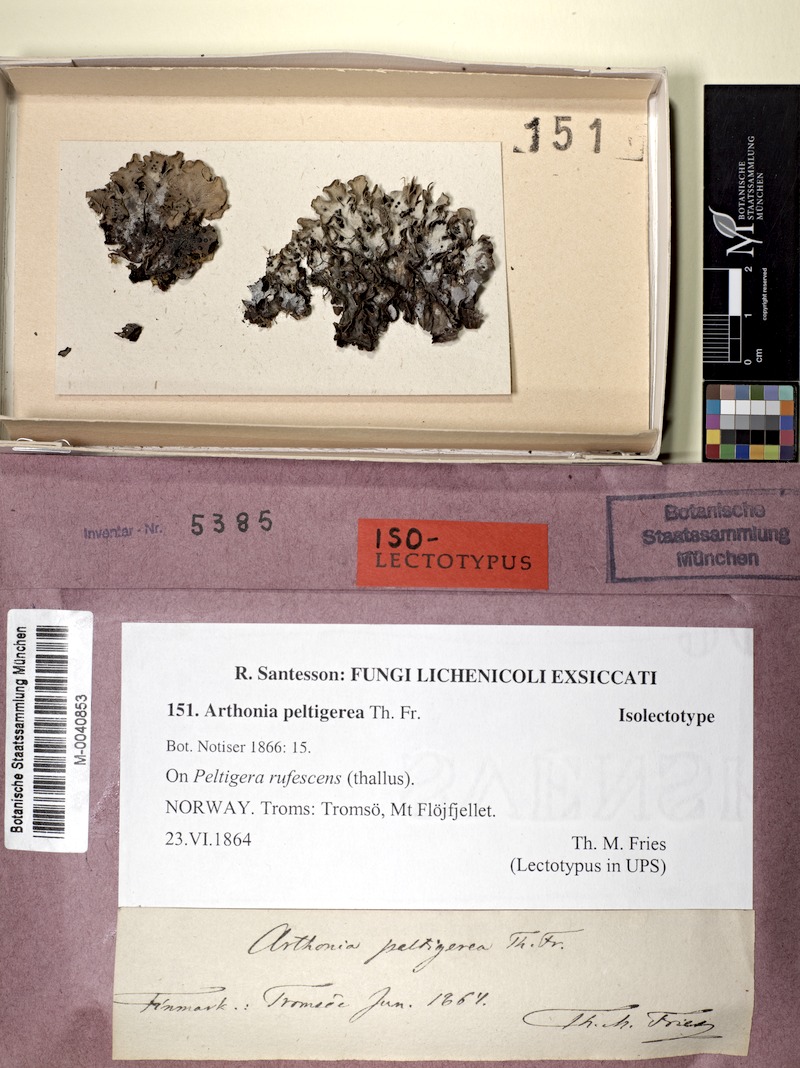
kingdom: Fungi
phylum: Ascomycota
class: Lecanoromycetes
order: Peltigerales
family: Peltigeraceae
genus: Peltigera
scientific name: Peltigera rufescens
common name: Field dog lichen
